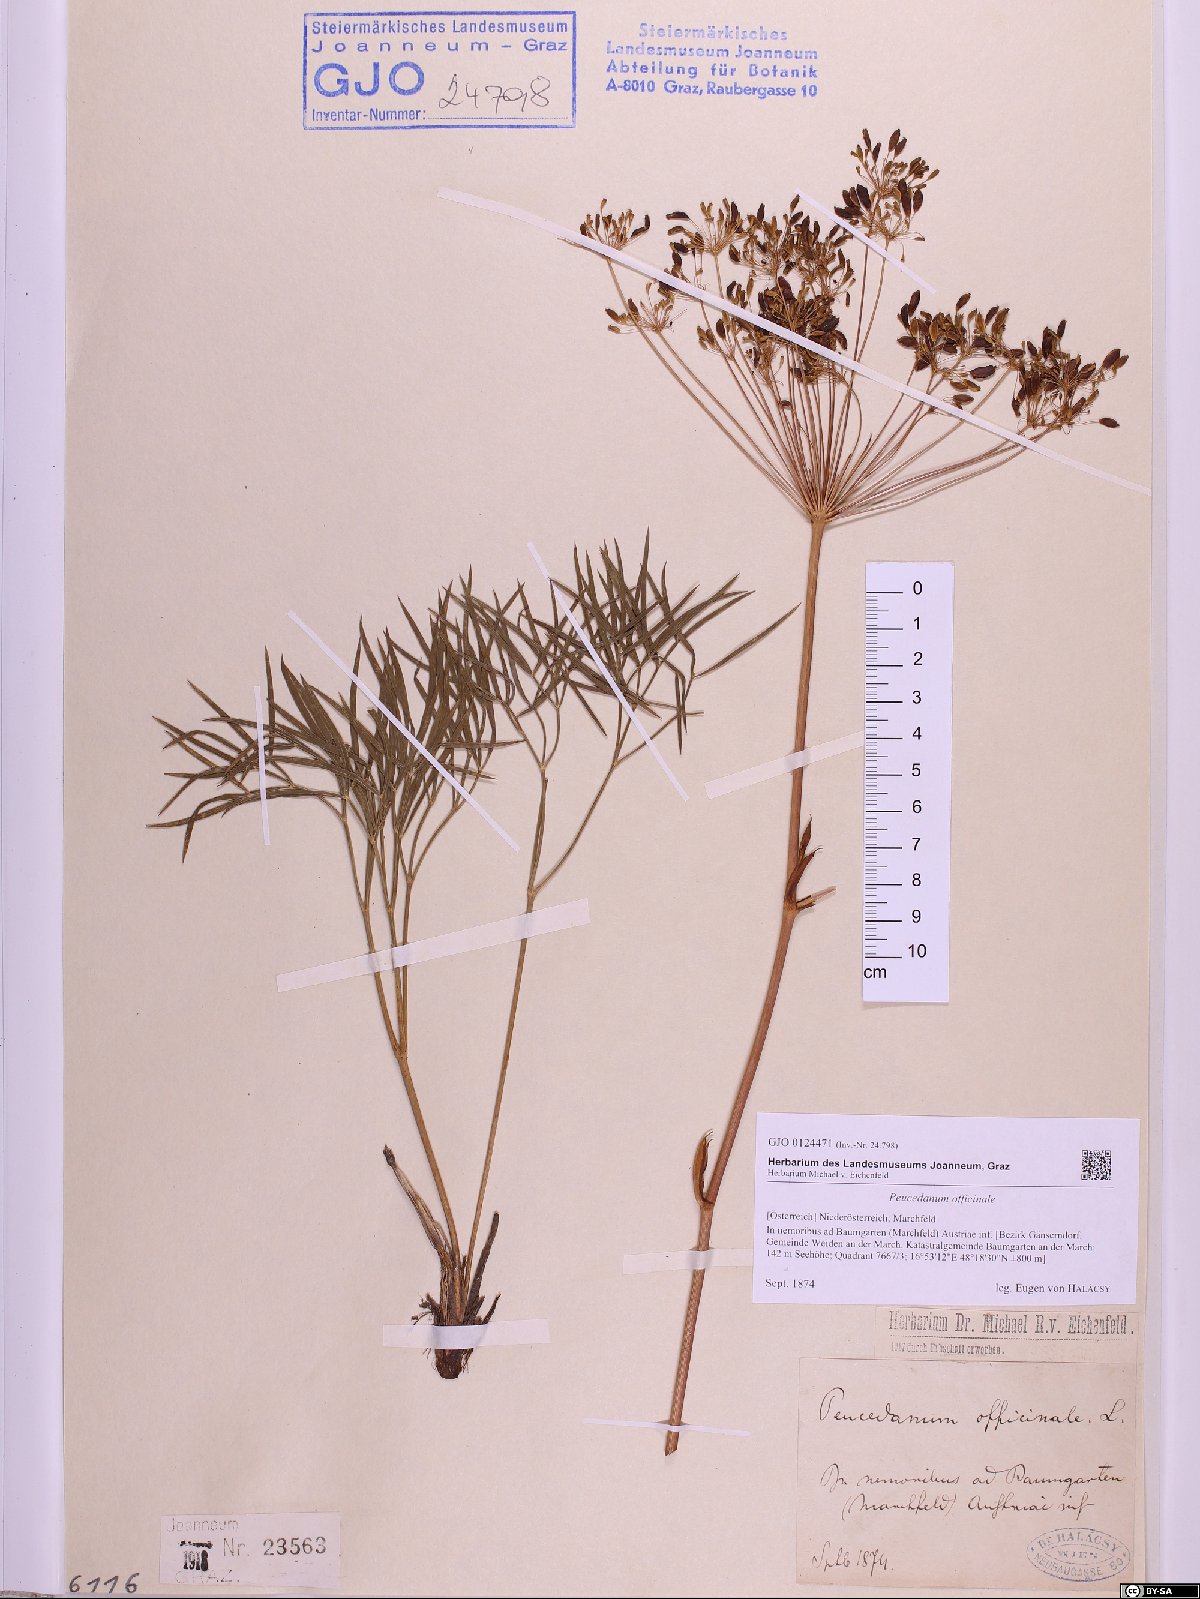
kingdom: Plantae
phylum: Tracheophyta
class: Magnoliopsida
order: Apiales
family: Apiaceae
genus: Peucedanum
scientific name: Peucedanum officinale
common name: Sulphurweed
